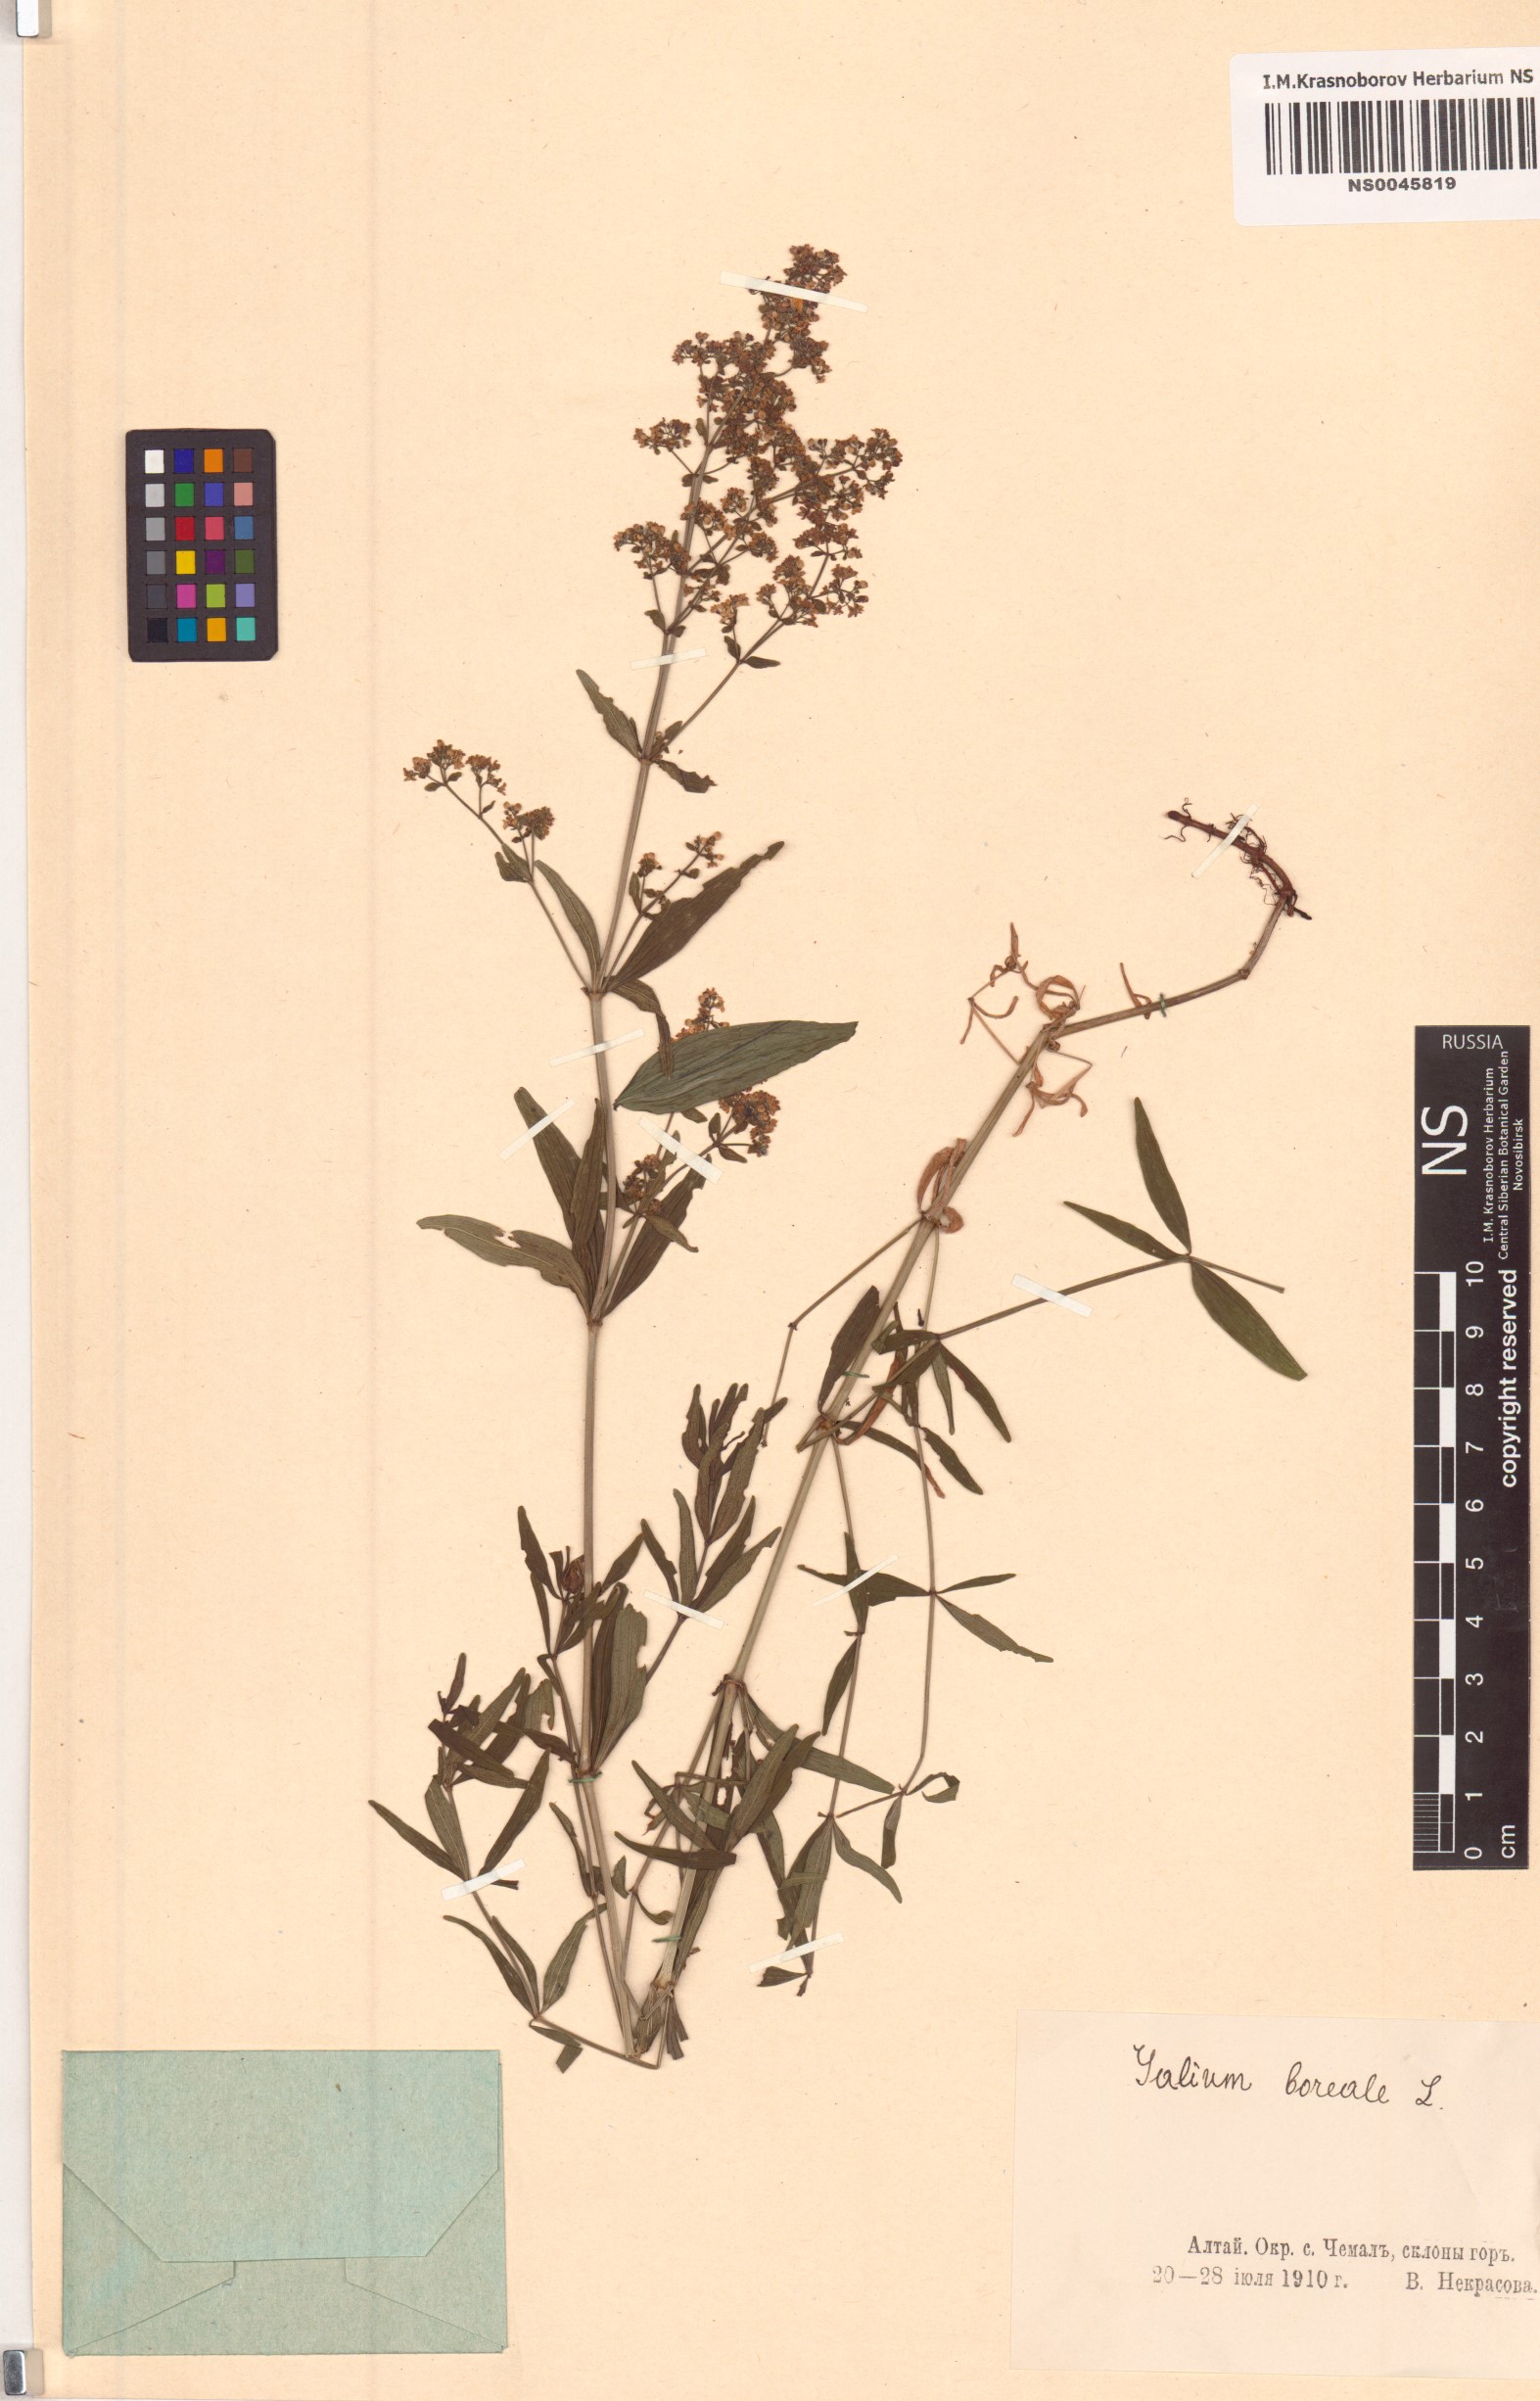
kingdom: Plantae
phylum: Tracheophyta
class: Magnoliopsida
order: Gentianales
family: Rubiaceae
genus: Galium
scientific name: Galium boreale
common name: Northern bedstraw
